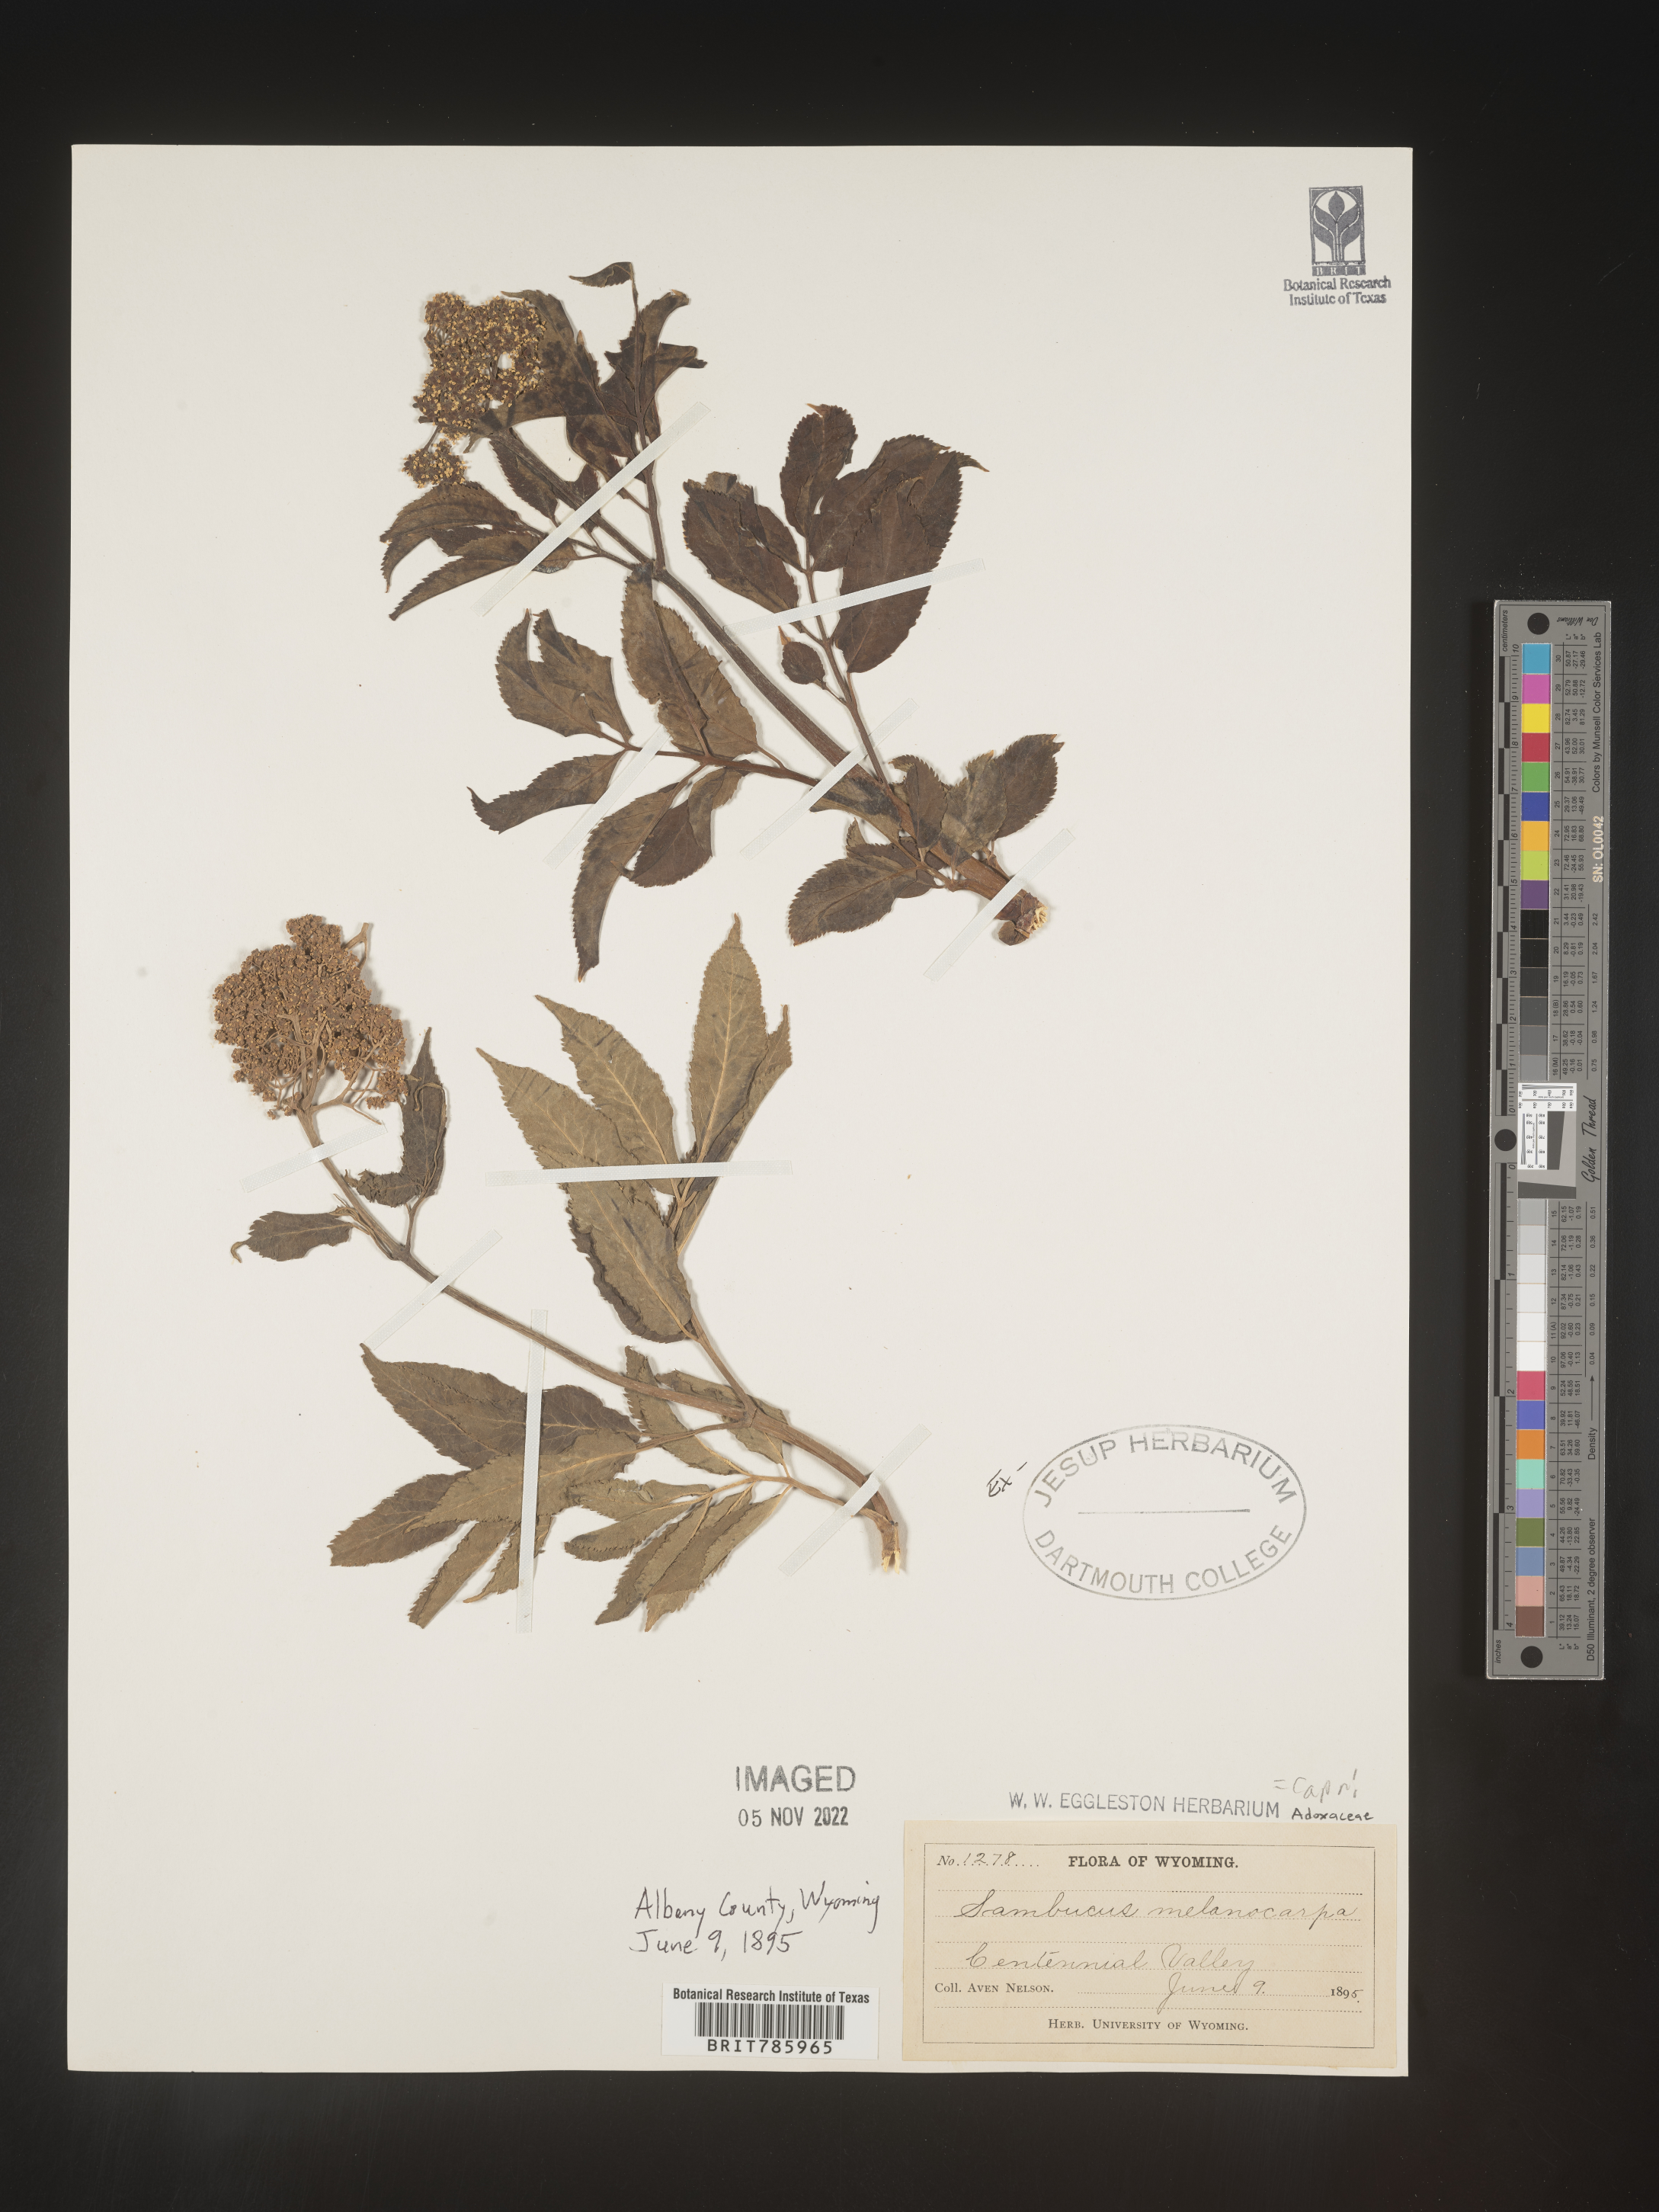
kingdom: Plantae
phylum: Tracheophyta
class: Magnoliopsida
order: Dipsacales
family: Viburnaceae
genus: Sambucus
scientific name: Sambucus racemosa
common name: Red-berried elder
